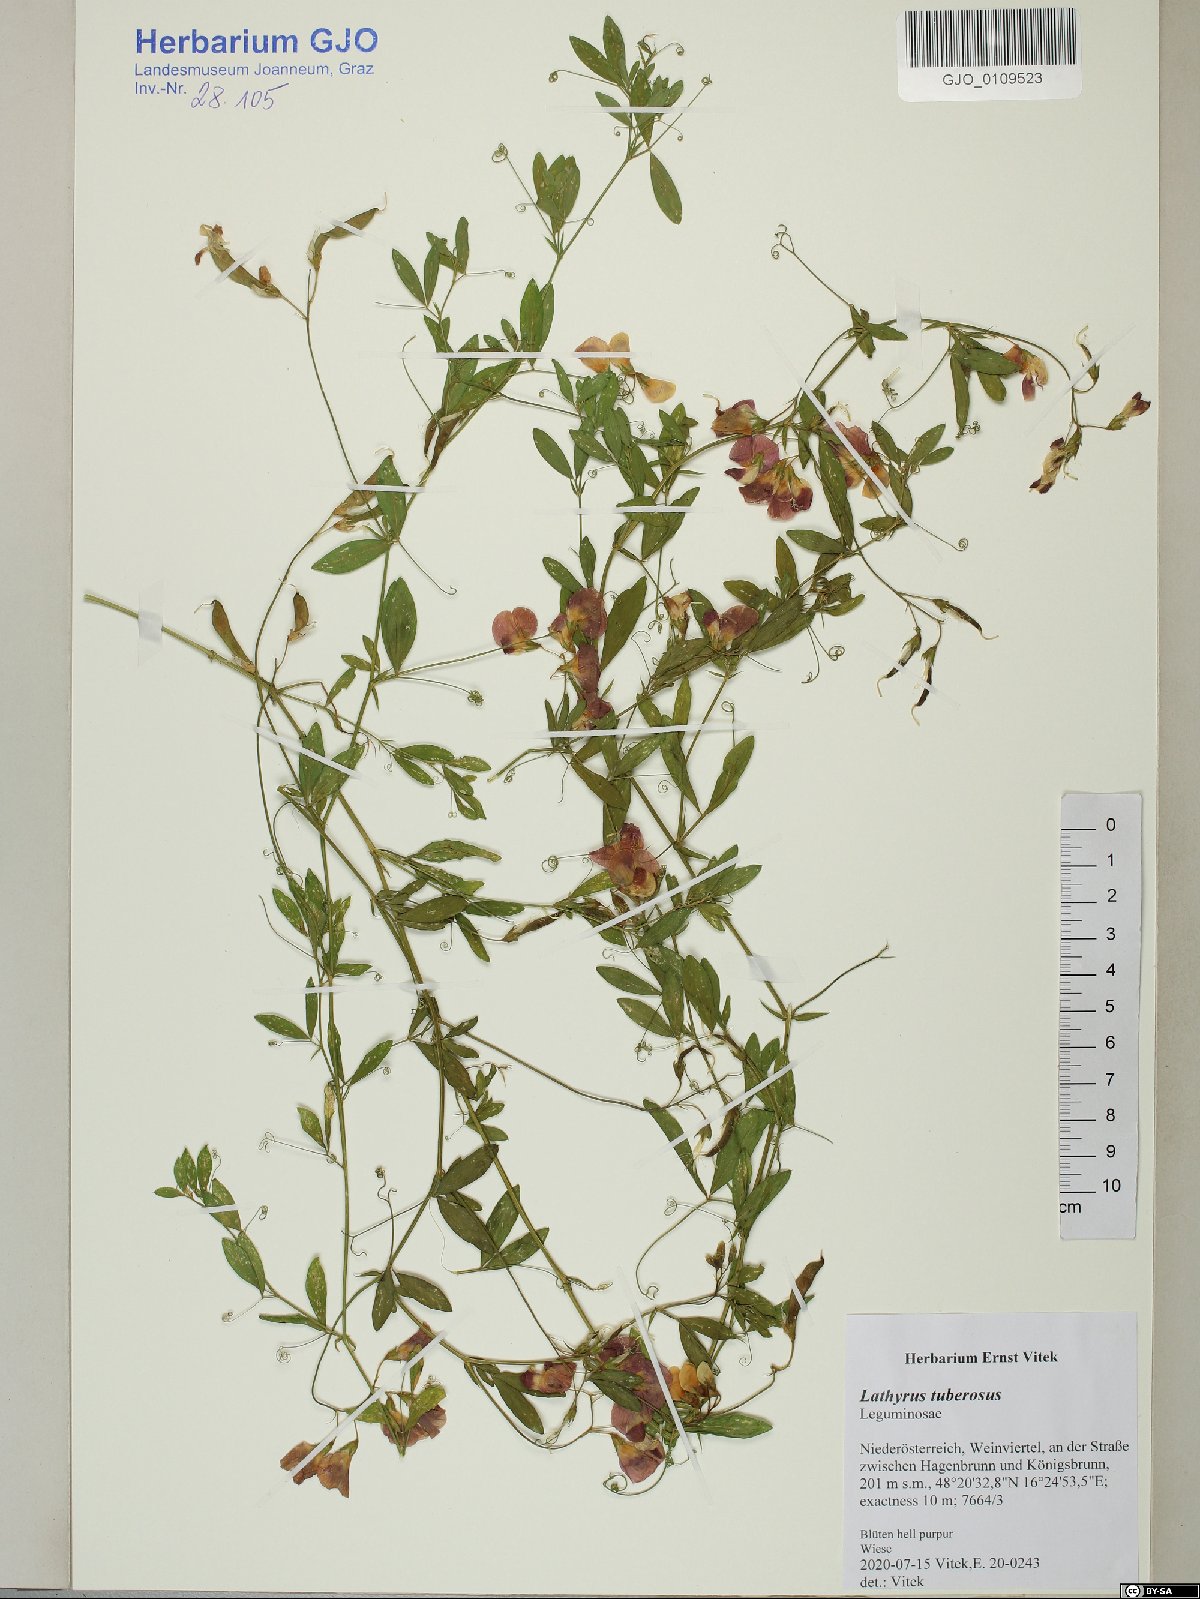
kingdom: Plantae
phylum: Tracheophyta
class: Magnoliopsida
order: Fabales
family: Fabaceae
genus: Lathyrus
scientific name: Lathyrus tuberosus
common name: Tuberous pea
